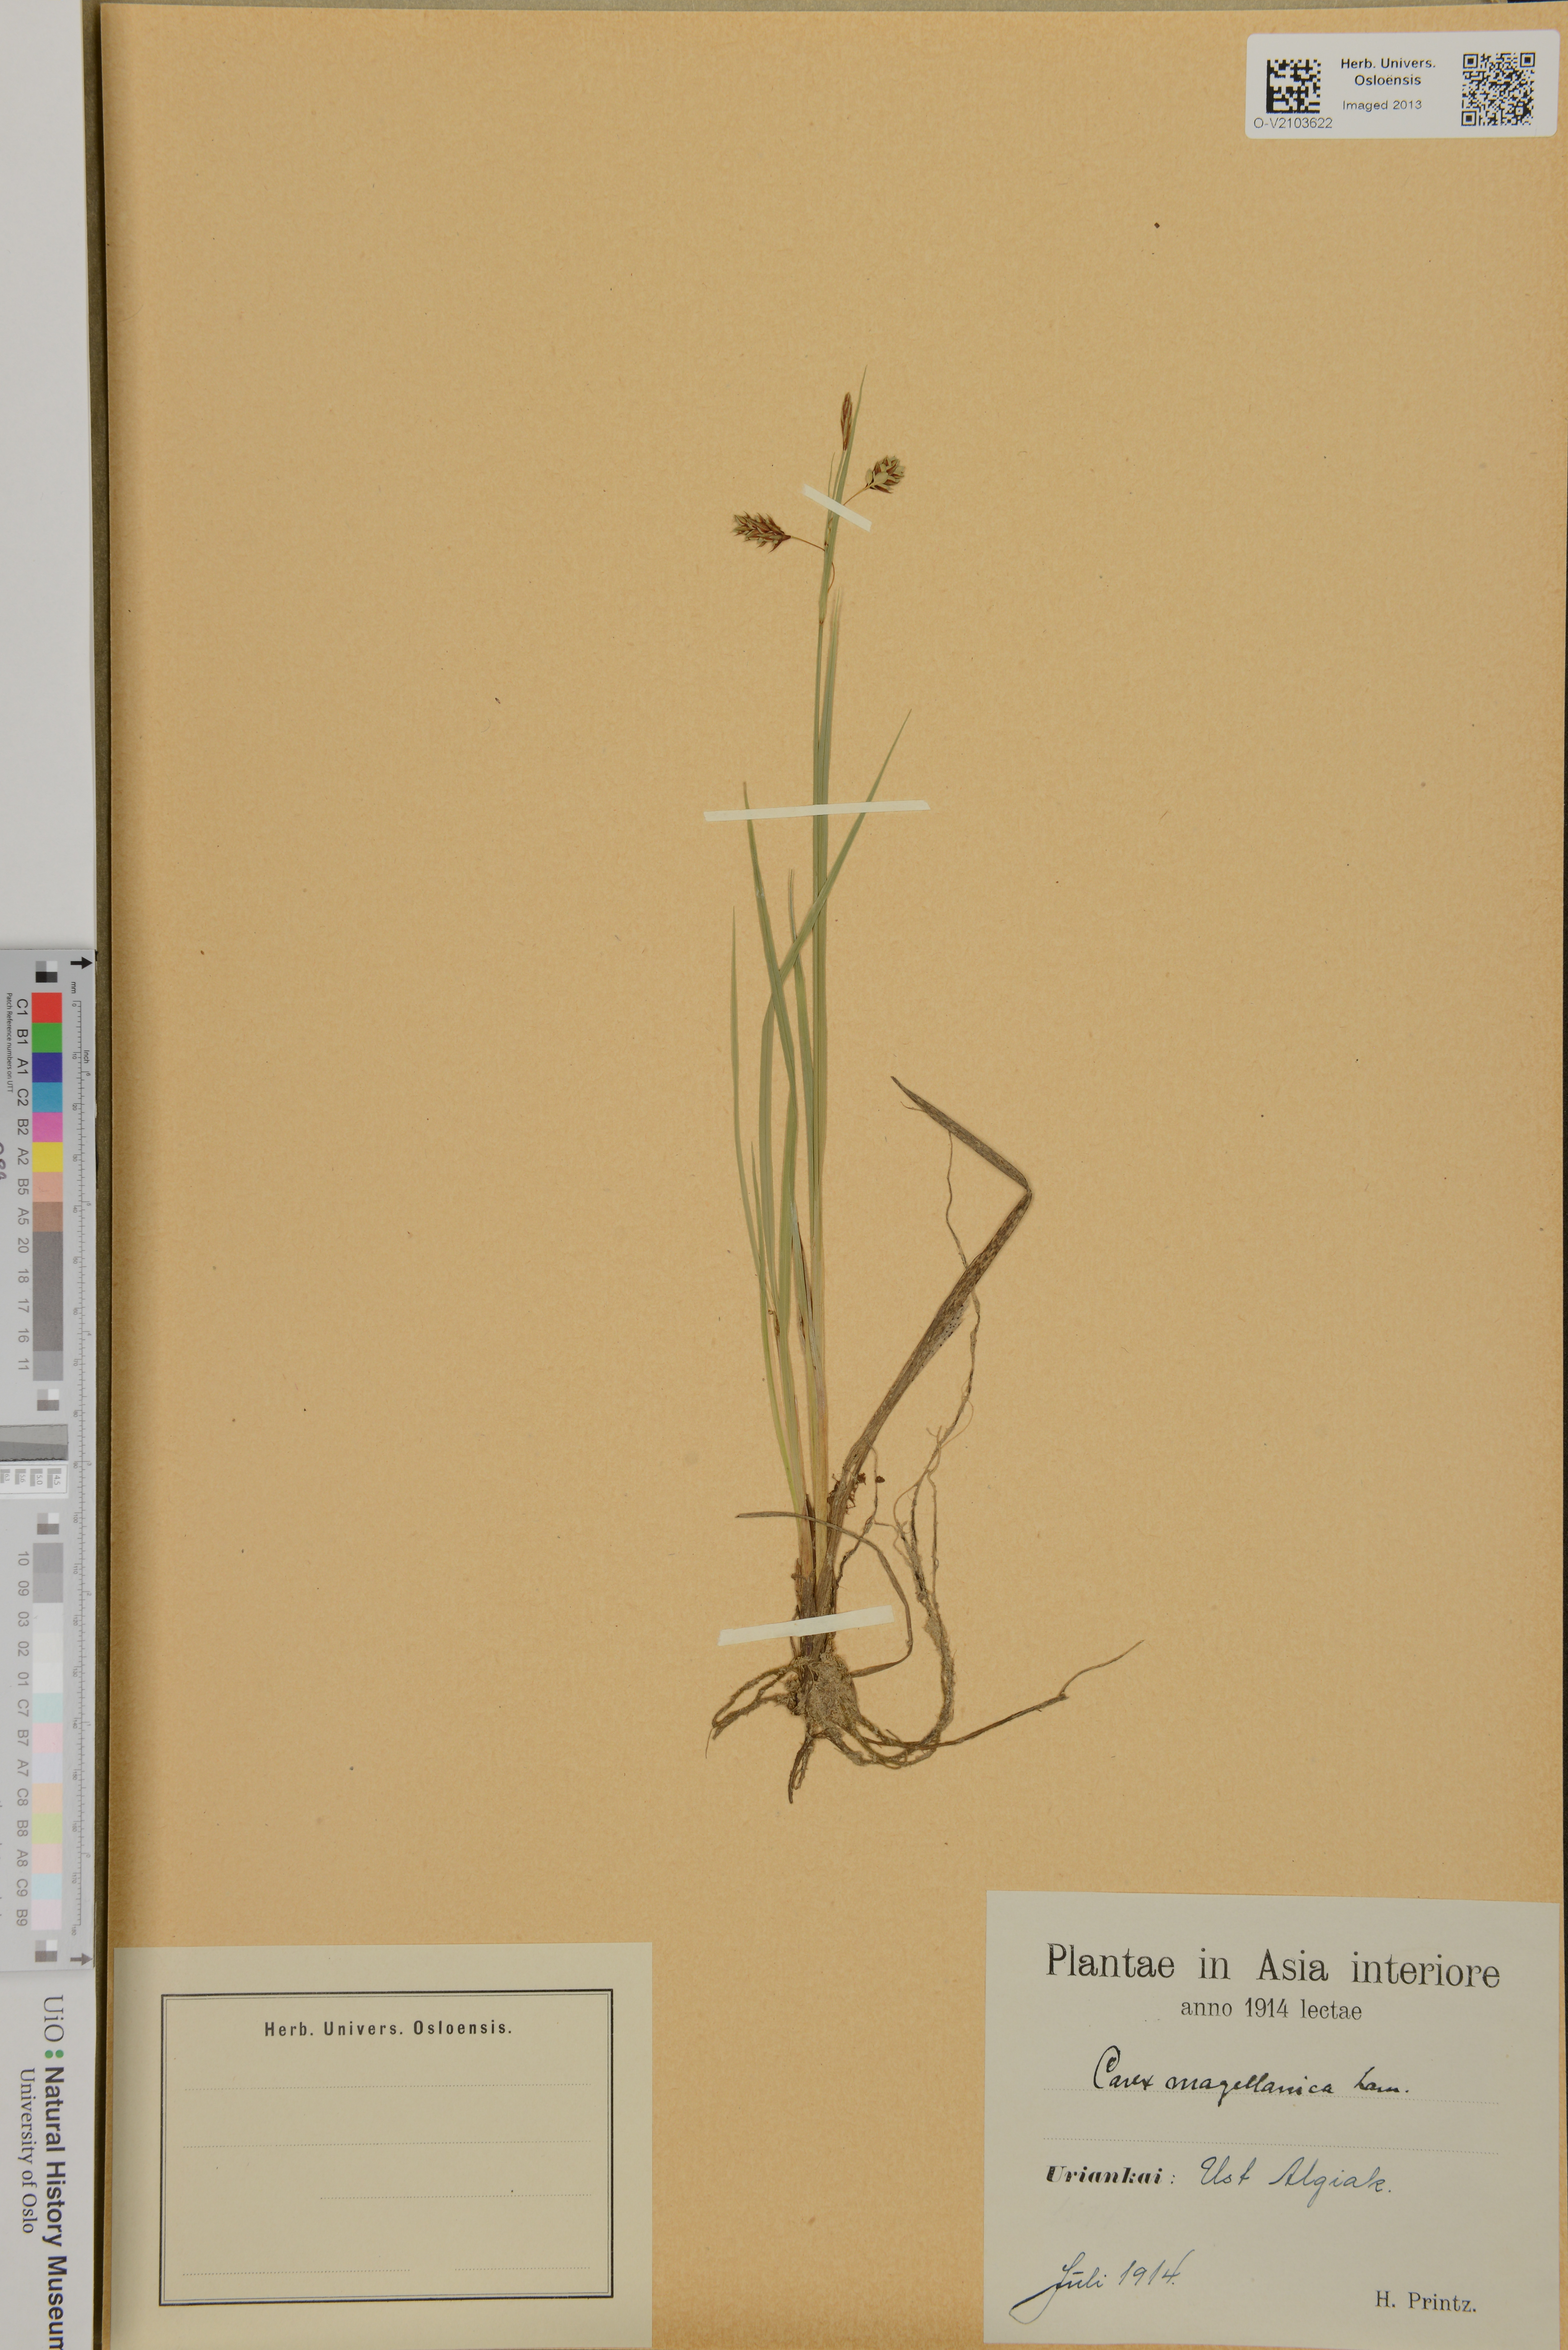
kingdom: Plantae
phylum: Tracheophyta
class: Liliopsida
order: Poales
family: Cyperaceae
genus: Carex
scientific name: Carex magellanica
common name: Bog sedge
